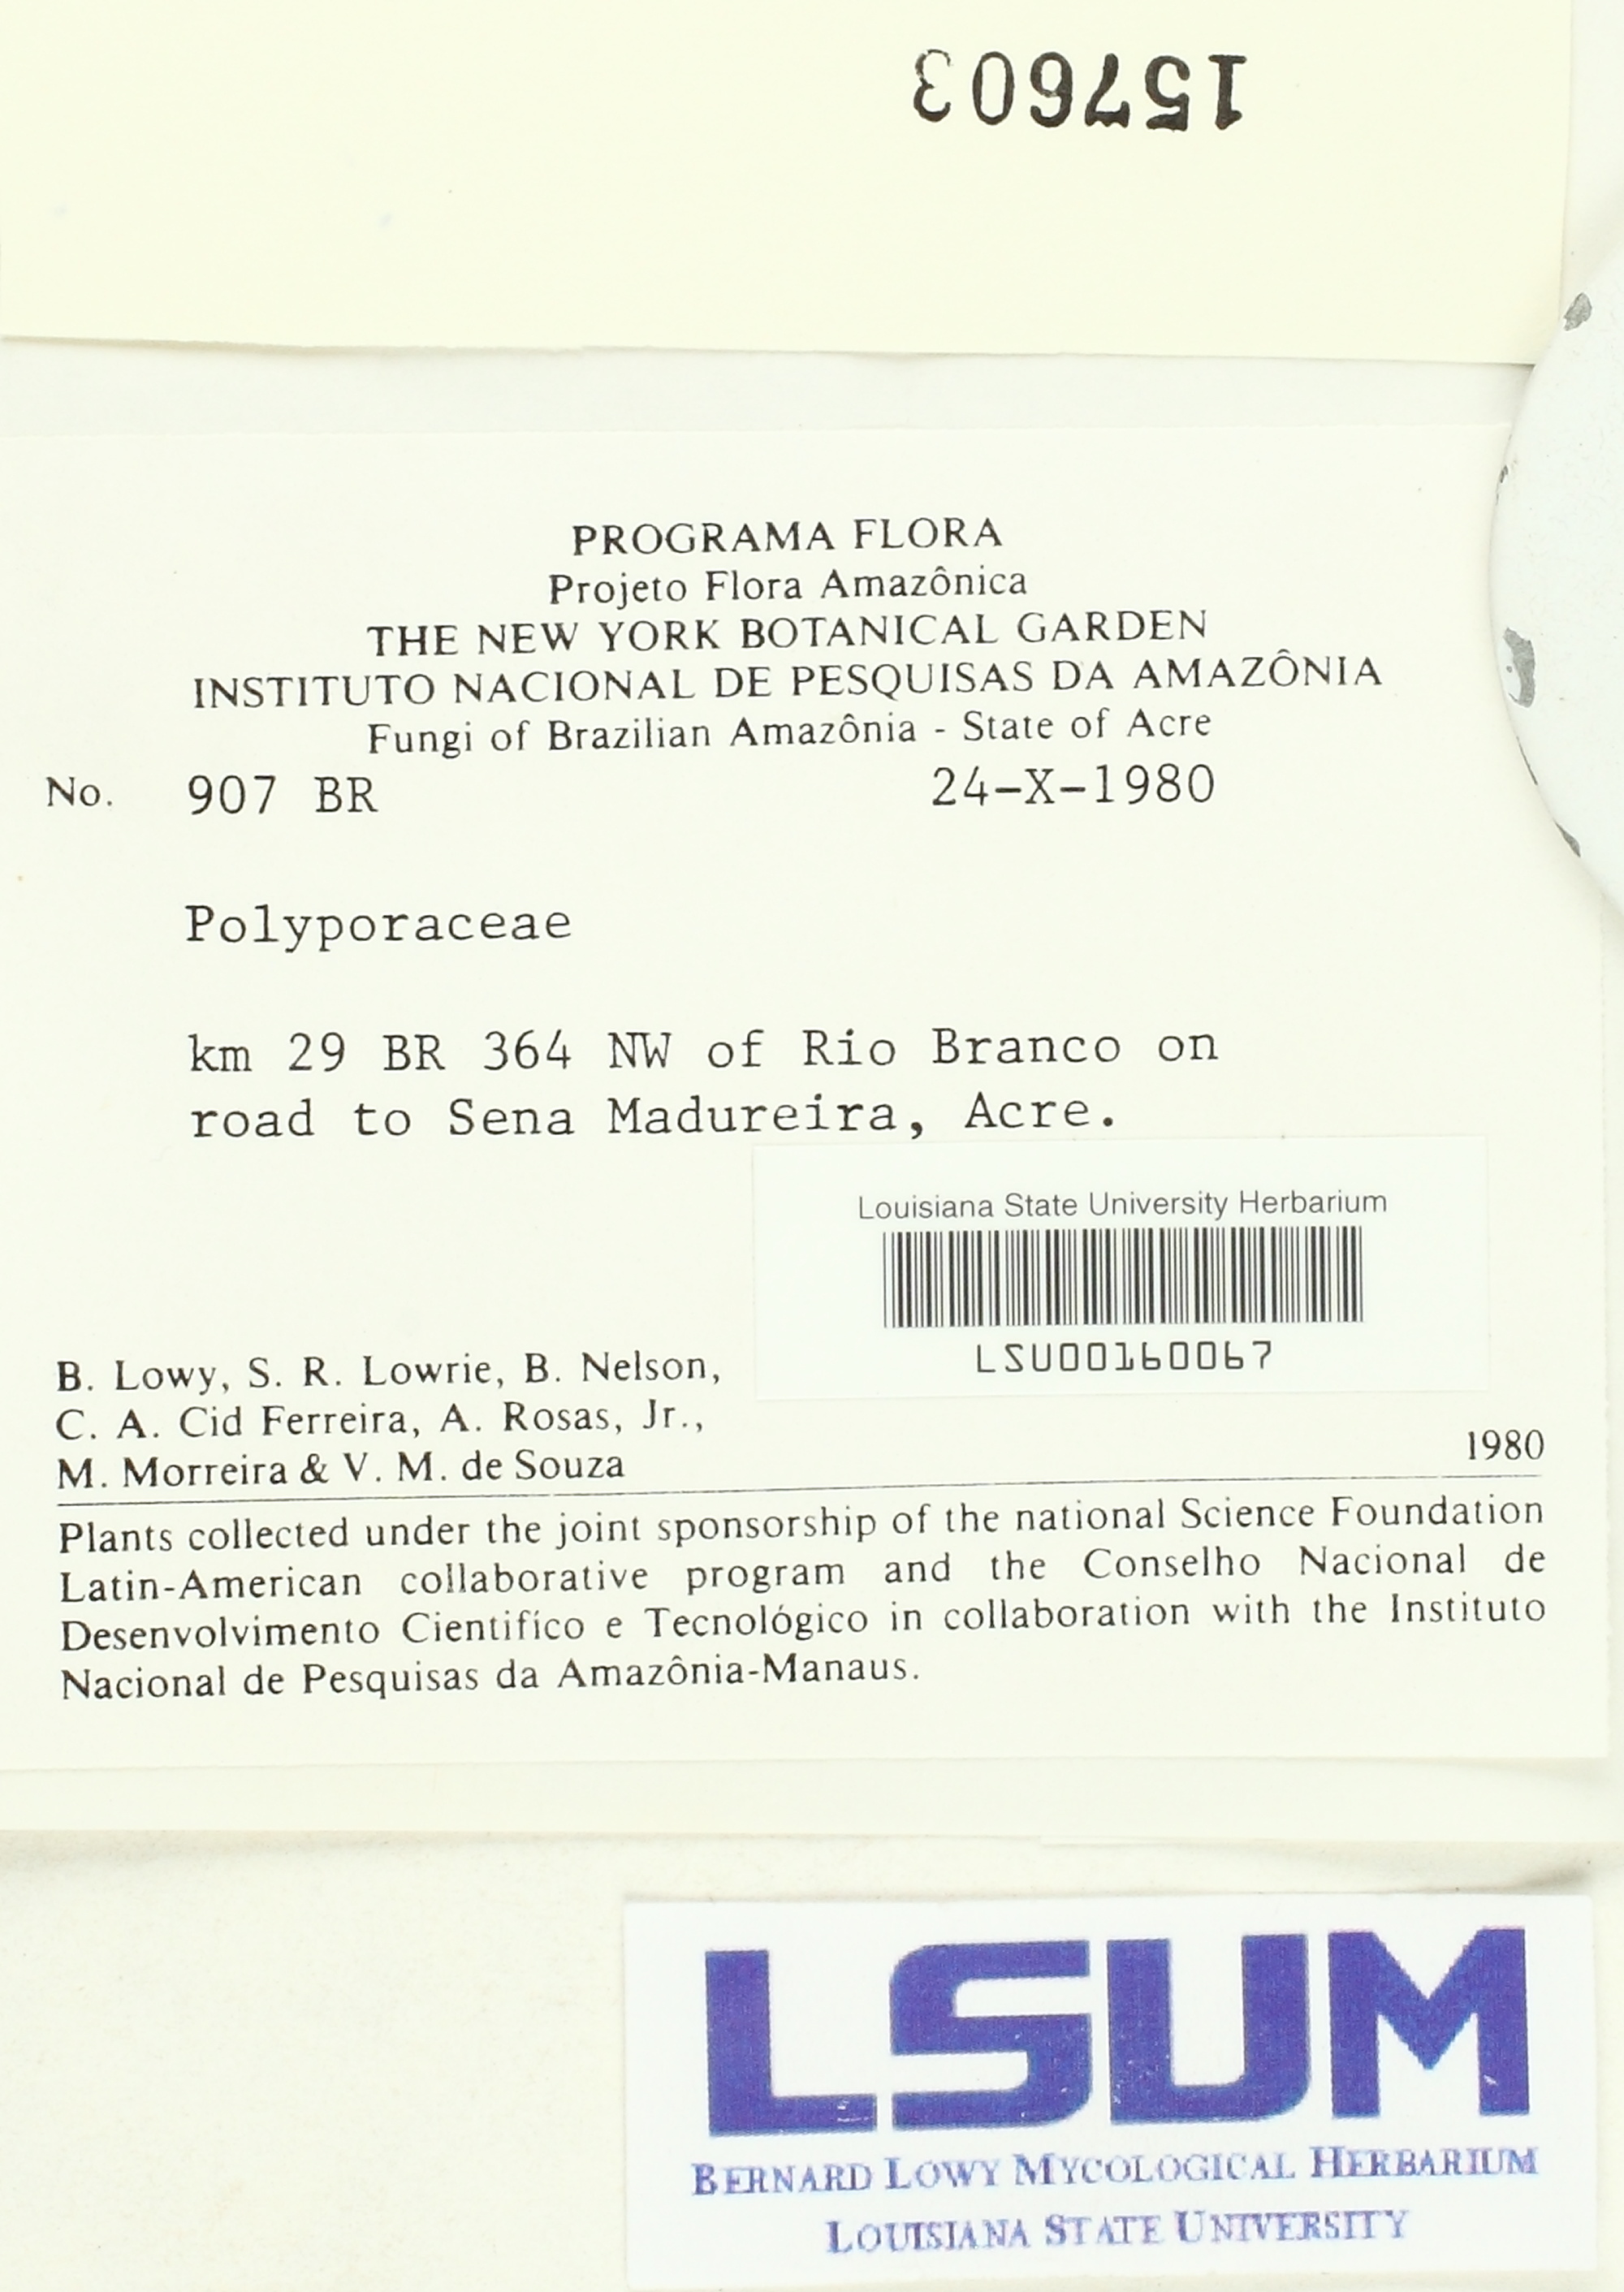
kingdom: Fungi
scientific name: Fungi
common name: Fungi
